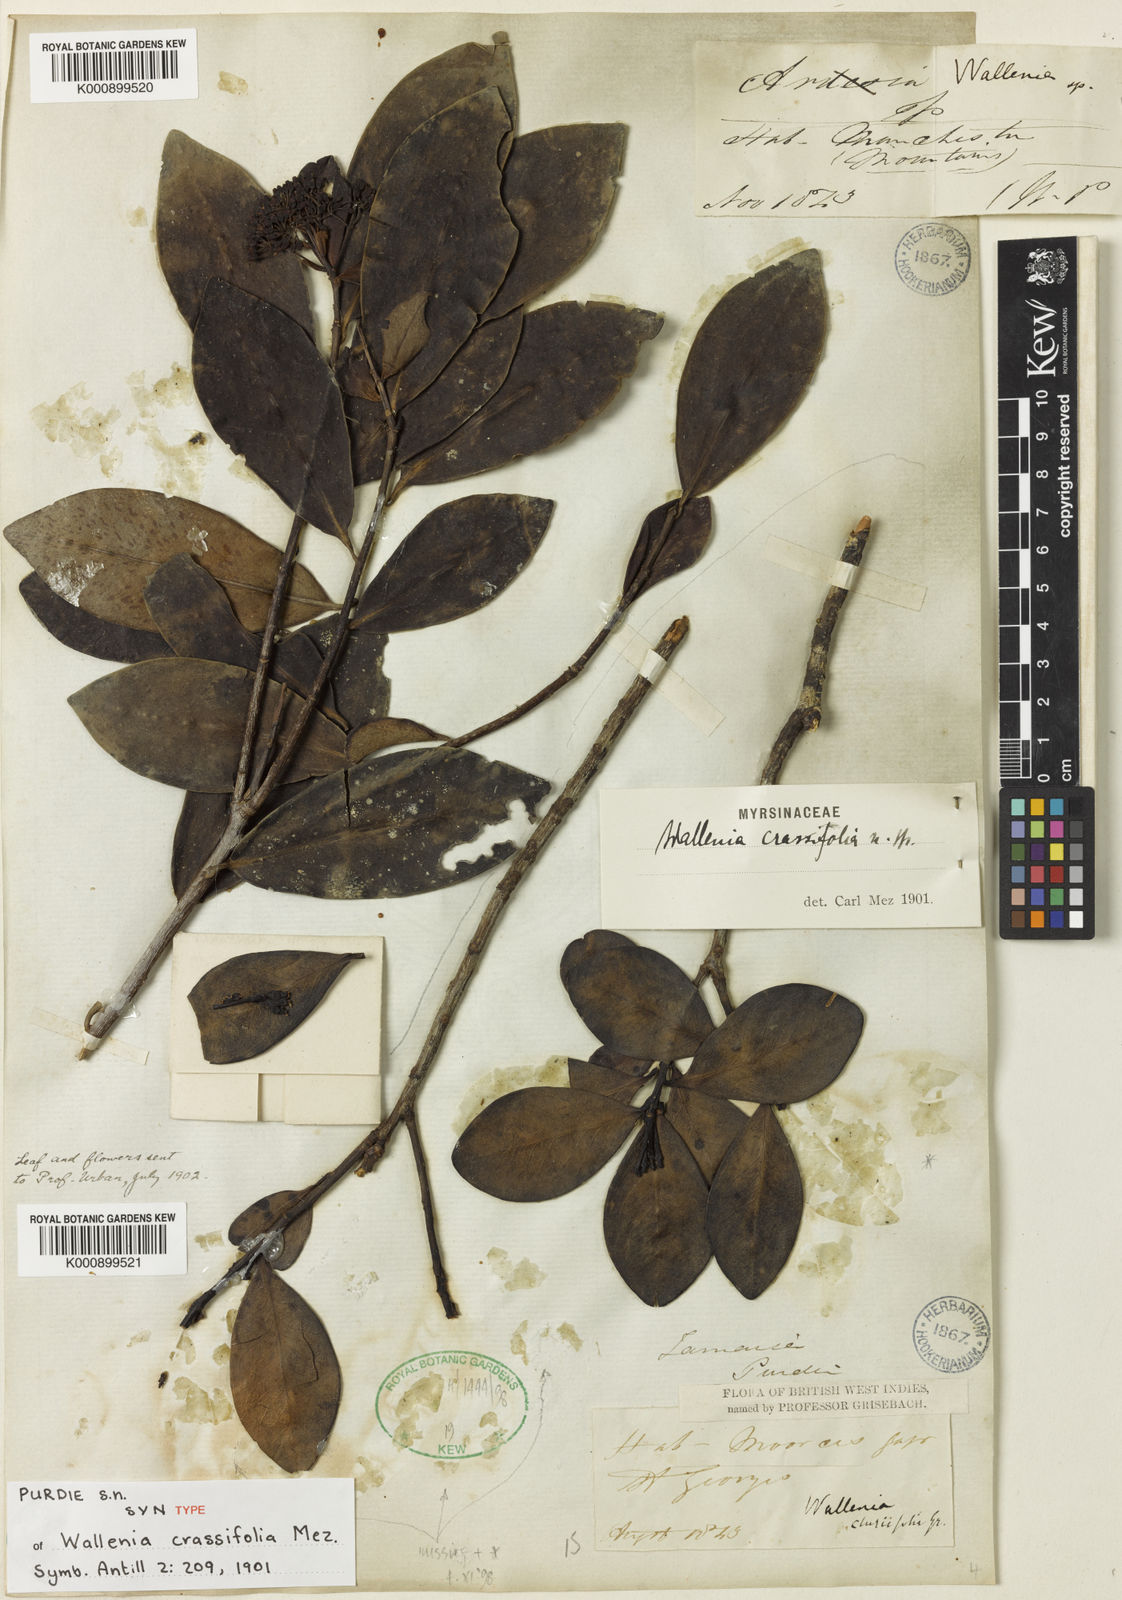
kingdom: Plantae
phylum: Tracheophyta
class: Magnoliopsida
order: Ericales
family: Primulaceae
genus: Cybianthus
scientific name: Cybianthus
